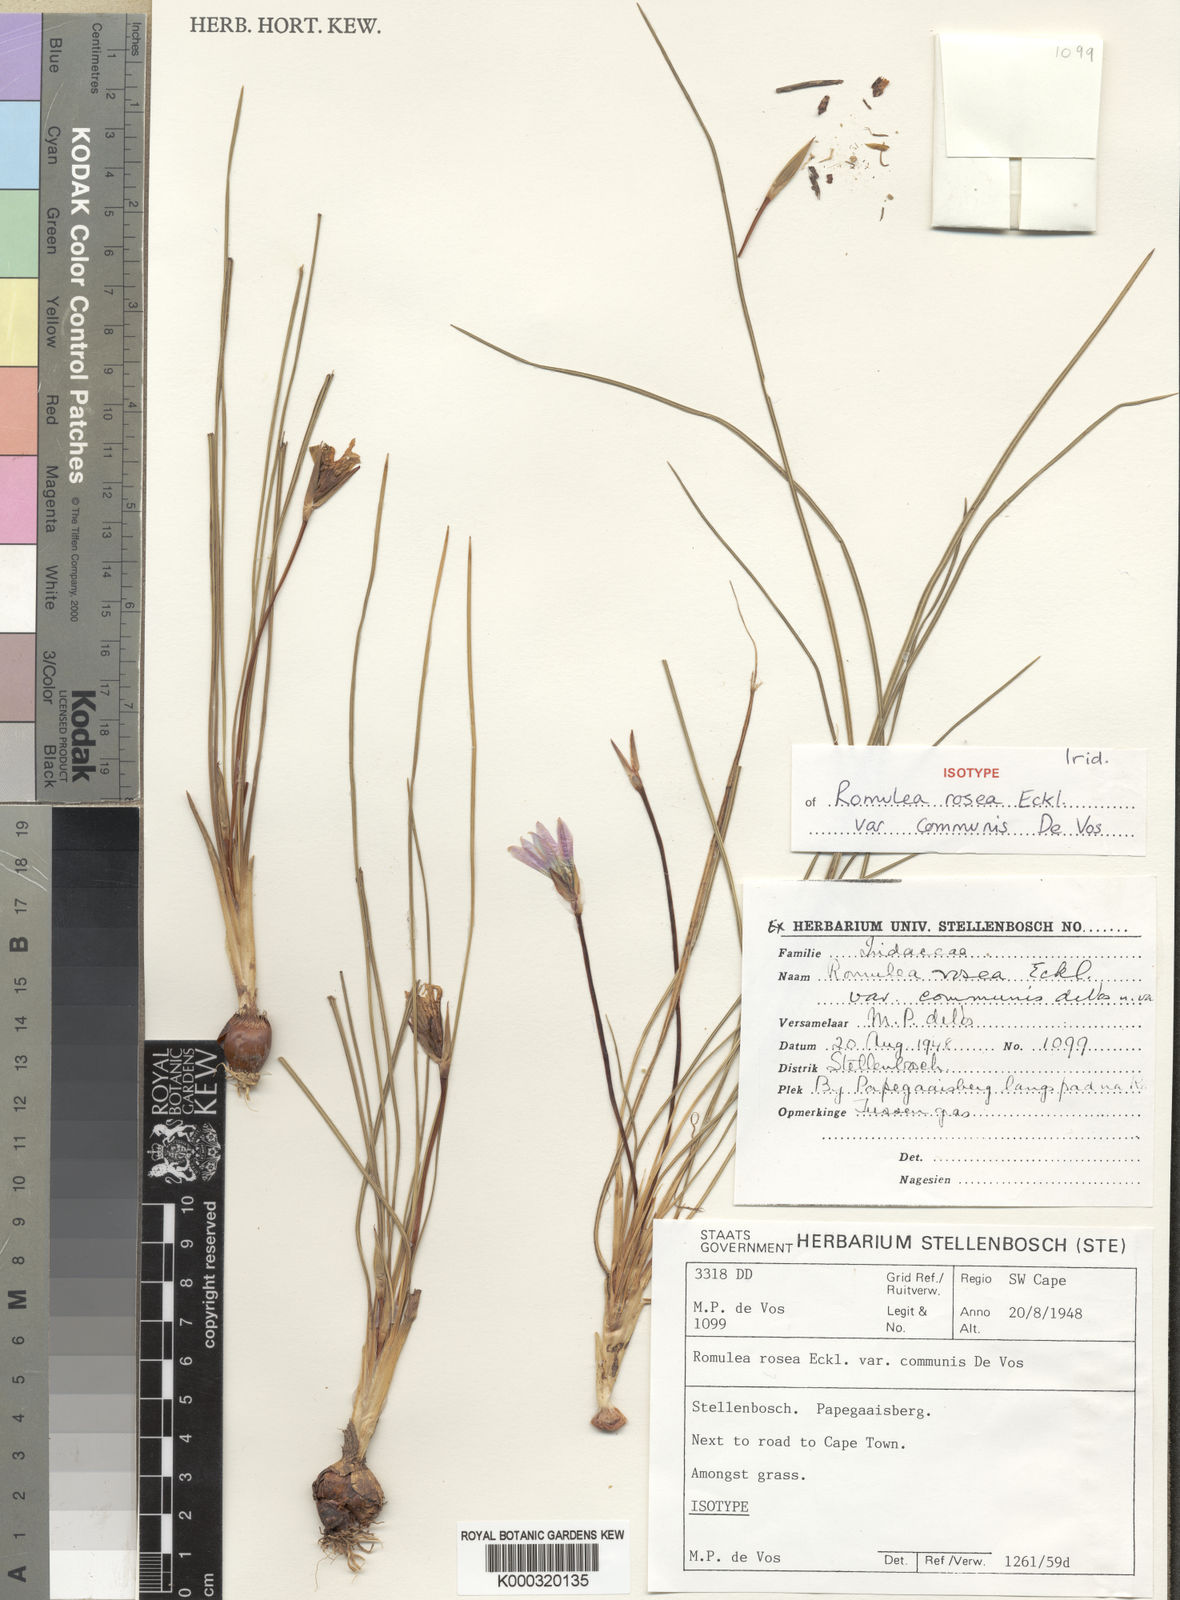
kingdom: Plantae
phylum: Tracheophyta
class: Liliopsida
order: Asparagales
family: Iridaceae
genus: Romulea
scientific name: Romulea rosea
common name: Oniongrass
